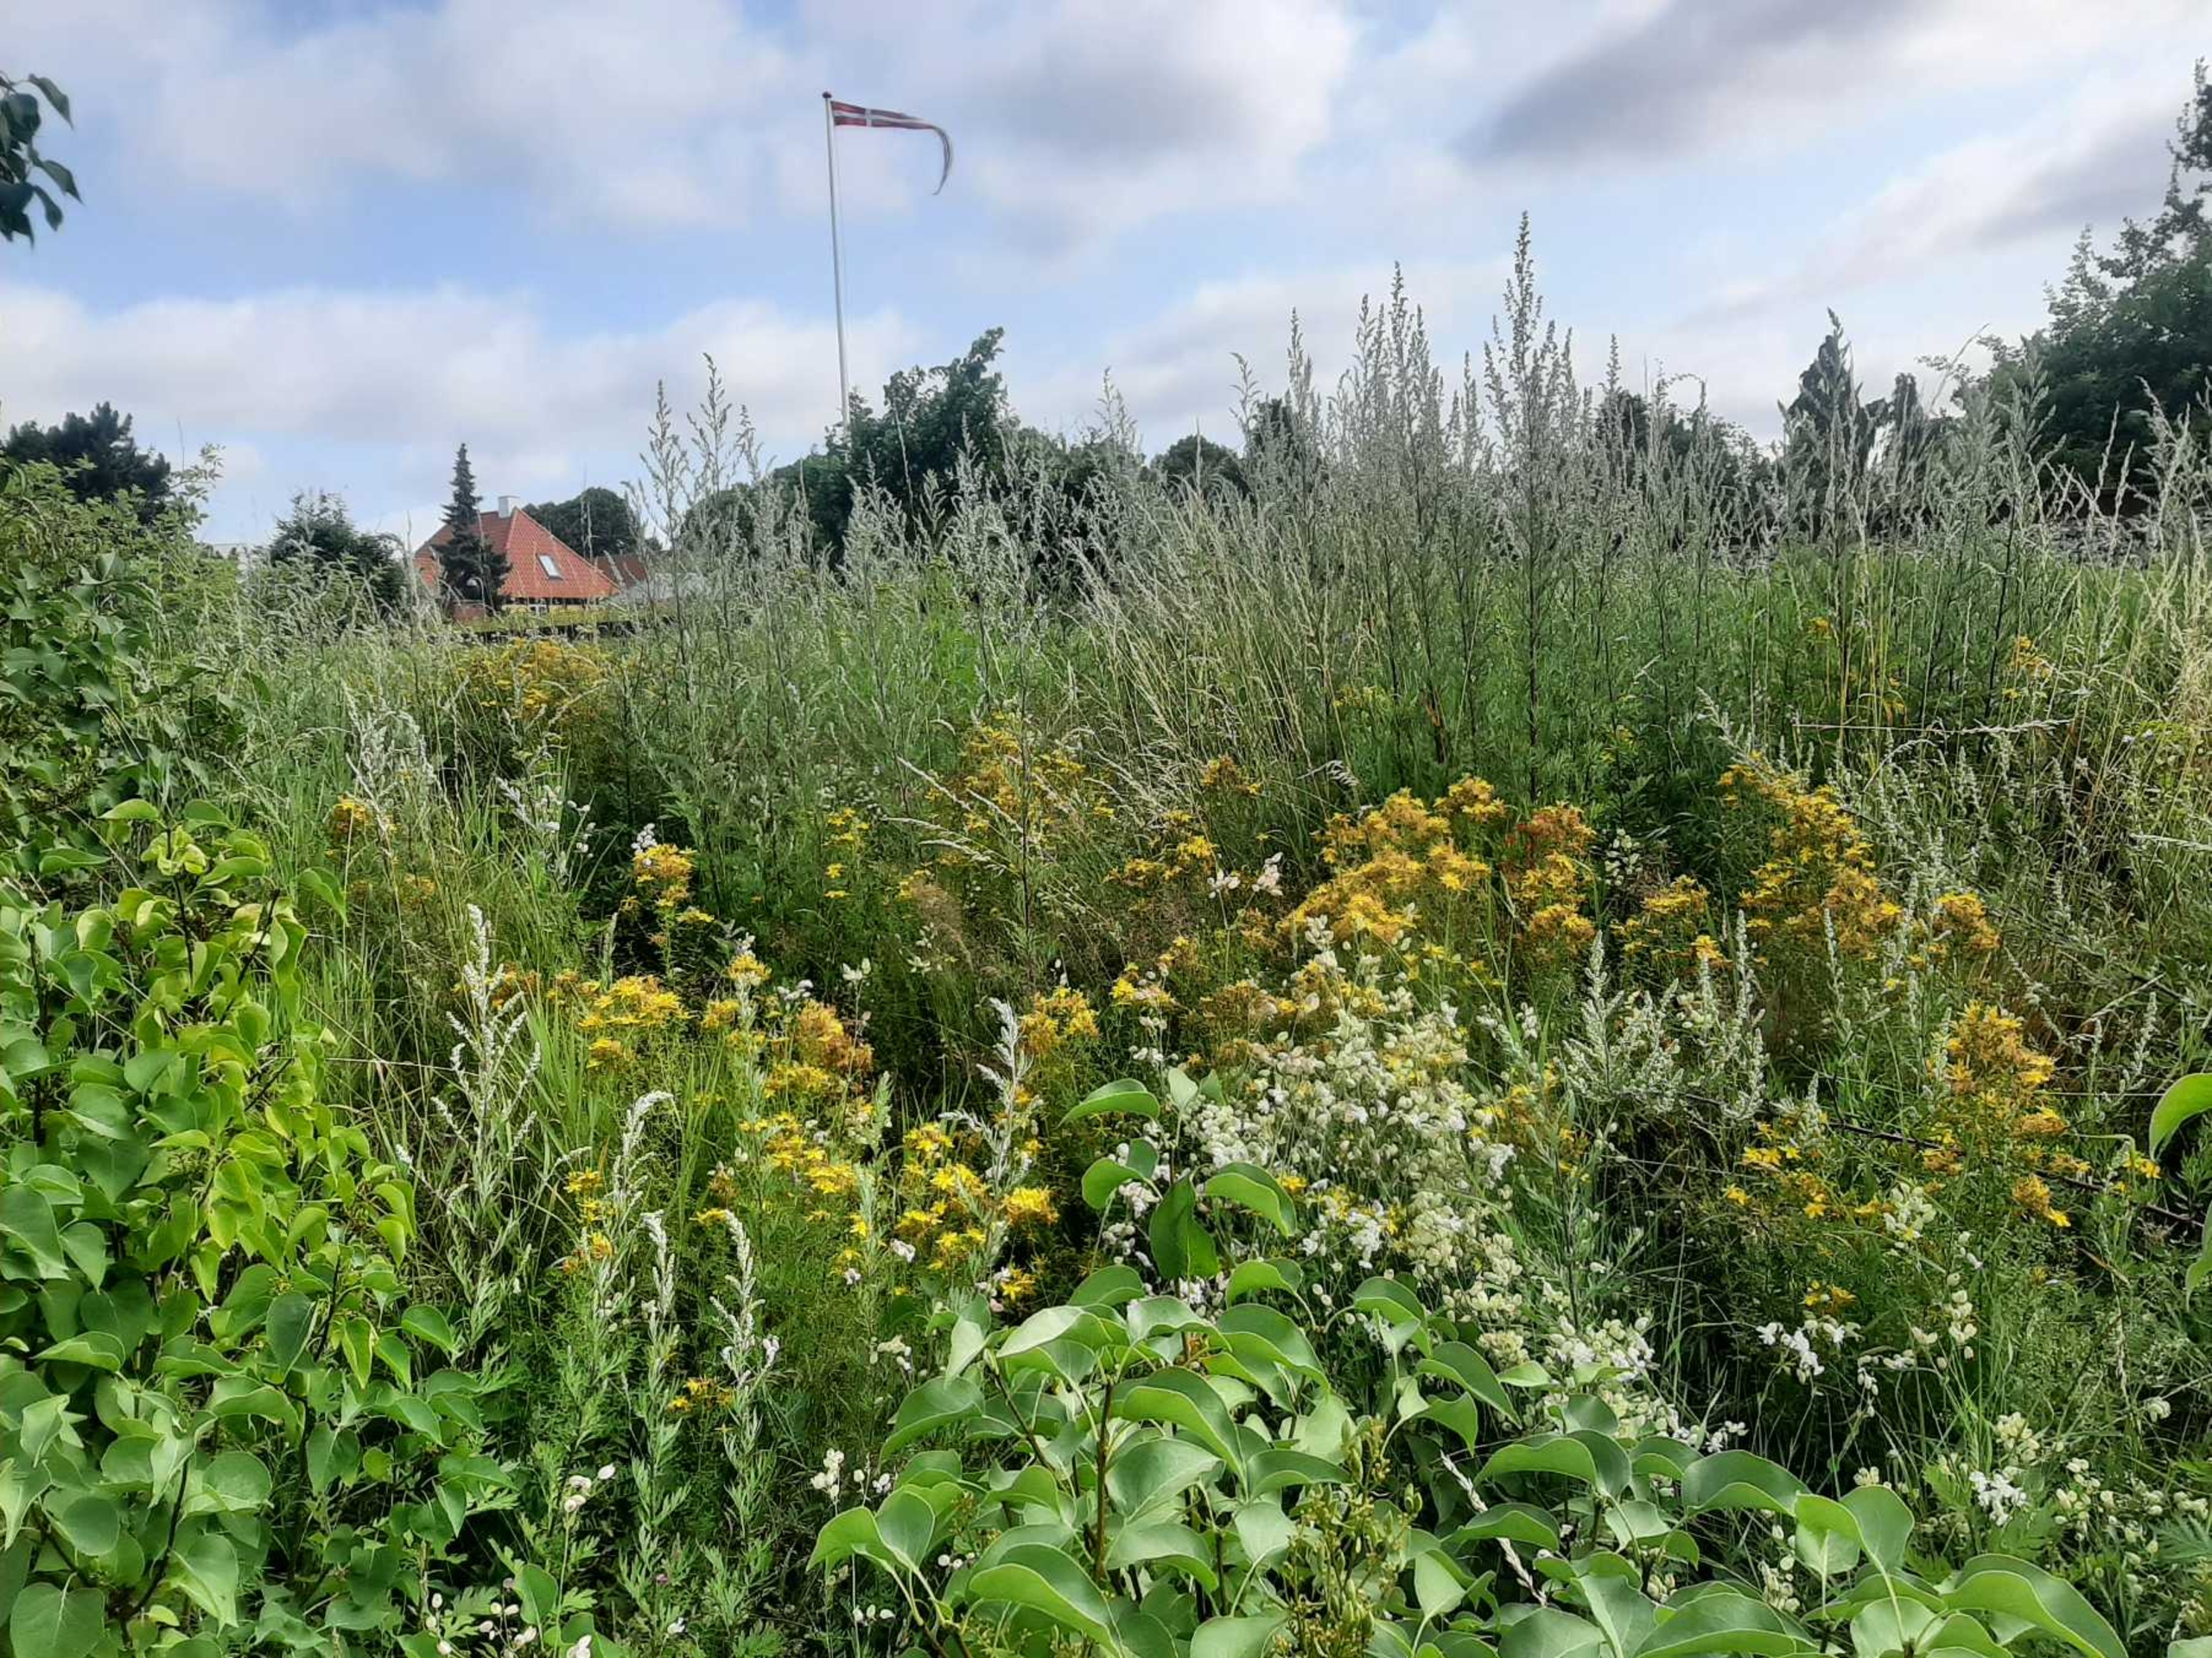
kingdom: Plantae
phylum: Tracheophyta
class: Magnoliopsida
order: Malpighiales
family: Hypericaceae
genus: Hypericum
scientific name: Hypericum perforatum
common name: Prikbladet perikon
